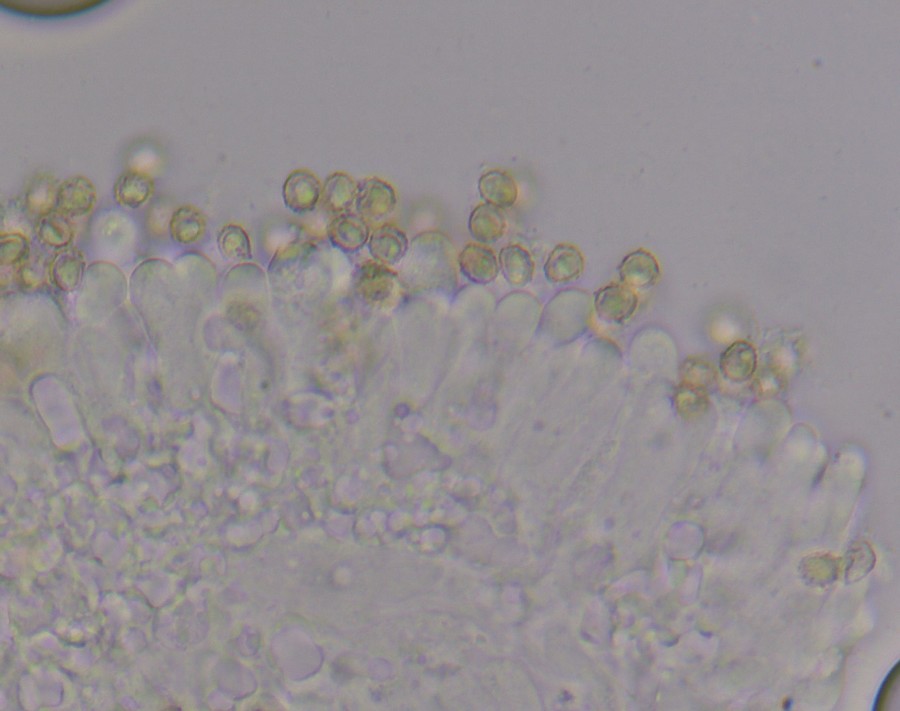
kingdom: Fungi
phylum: Basidiomycota
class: Agaricomycetes
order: Agaricales
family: Tricholomataceae
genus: Ripartites
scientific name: Ripartites tricholoma
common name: almindelig skæghat
